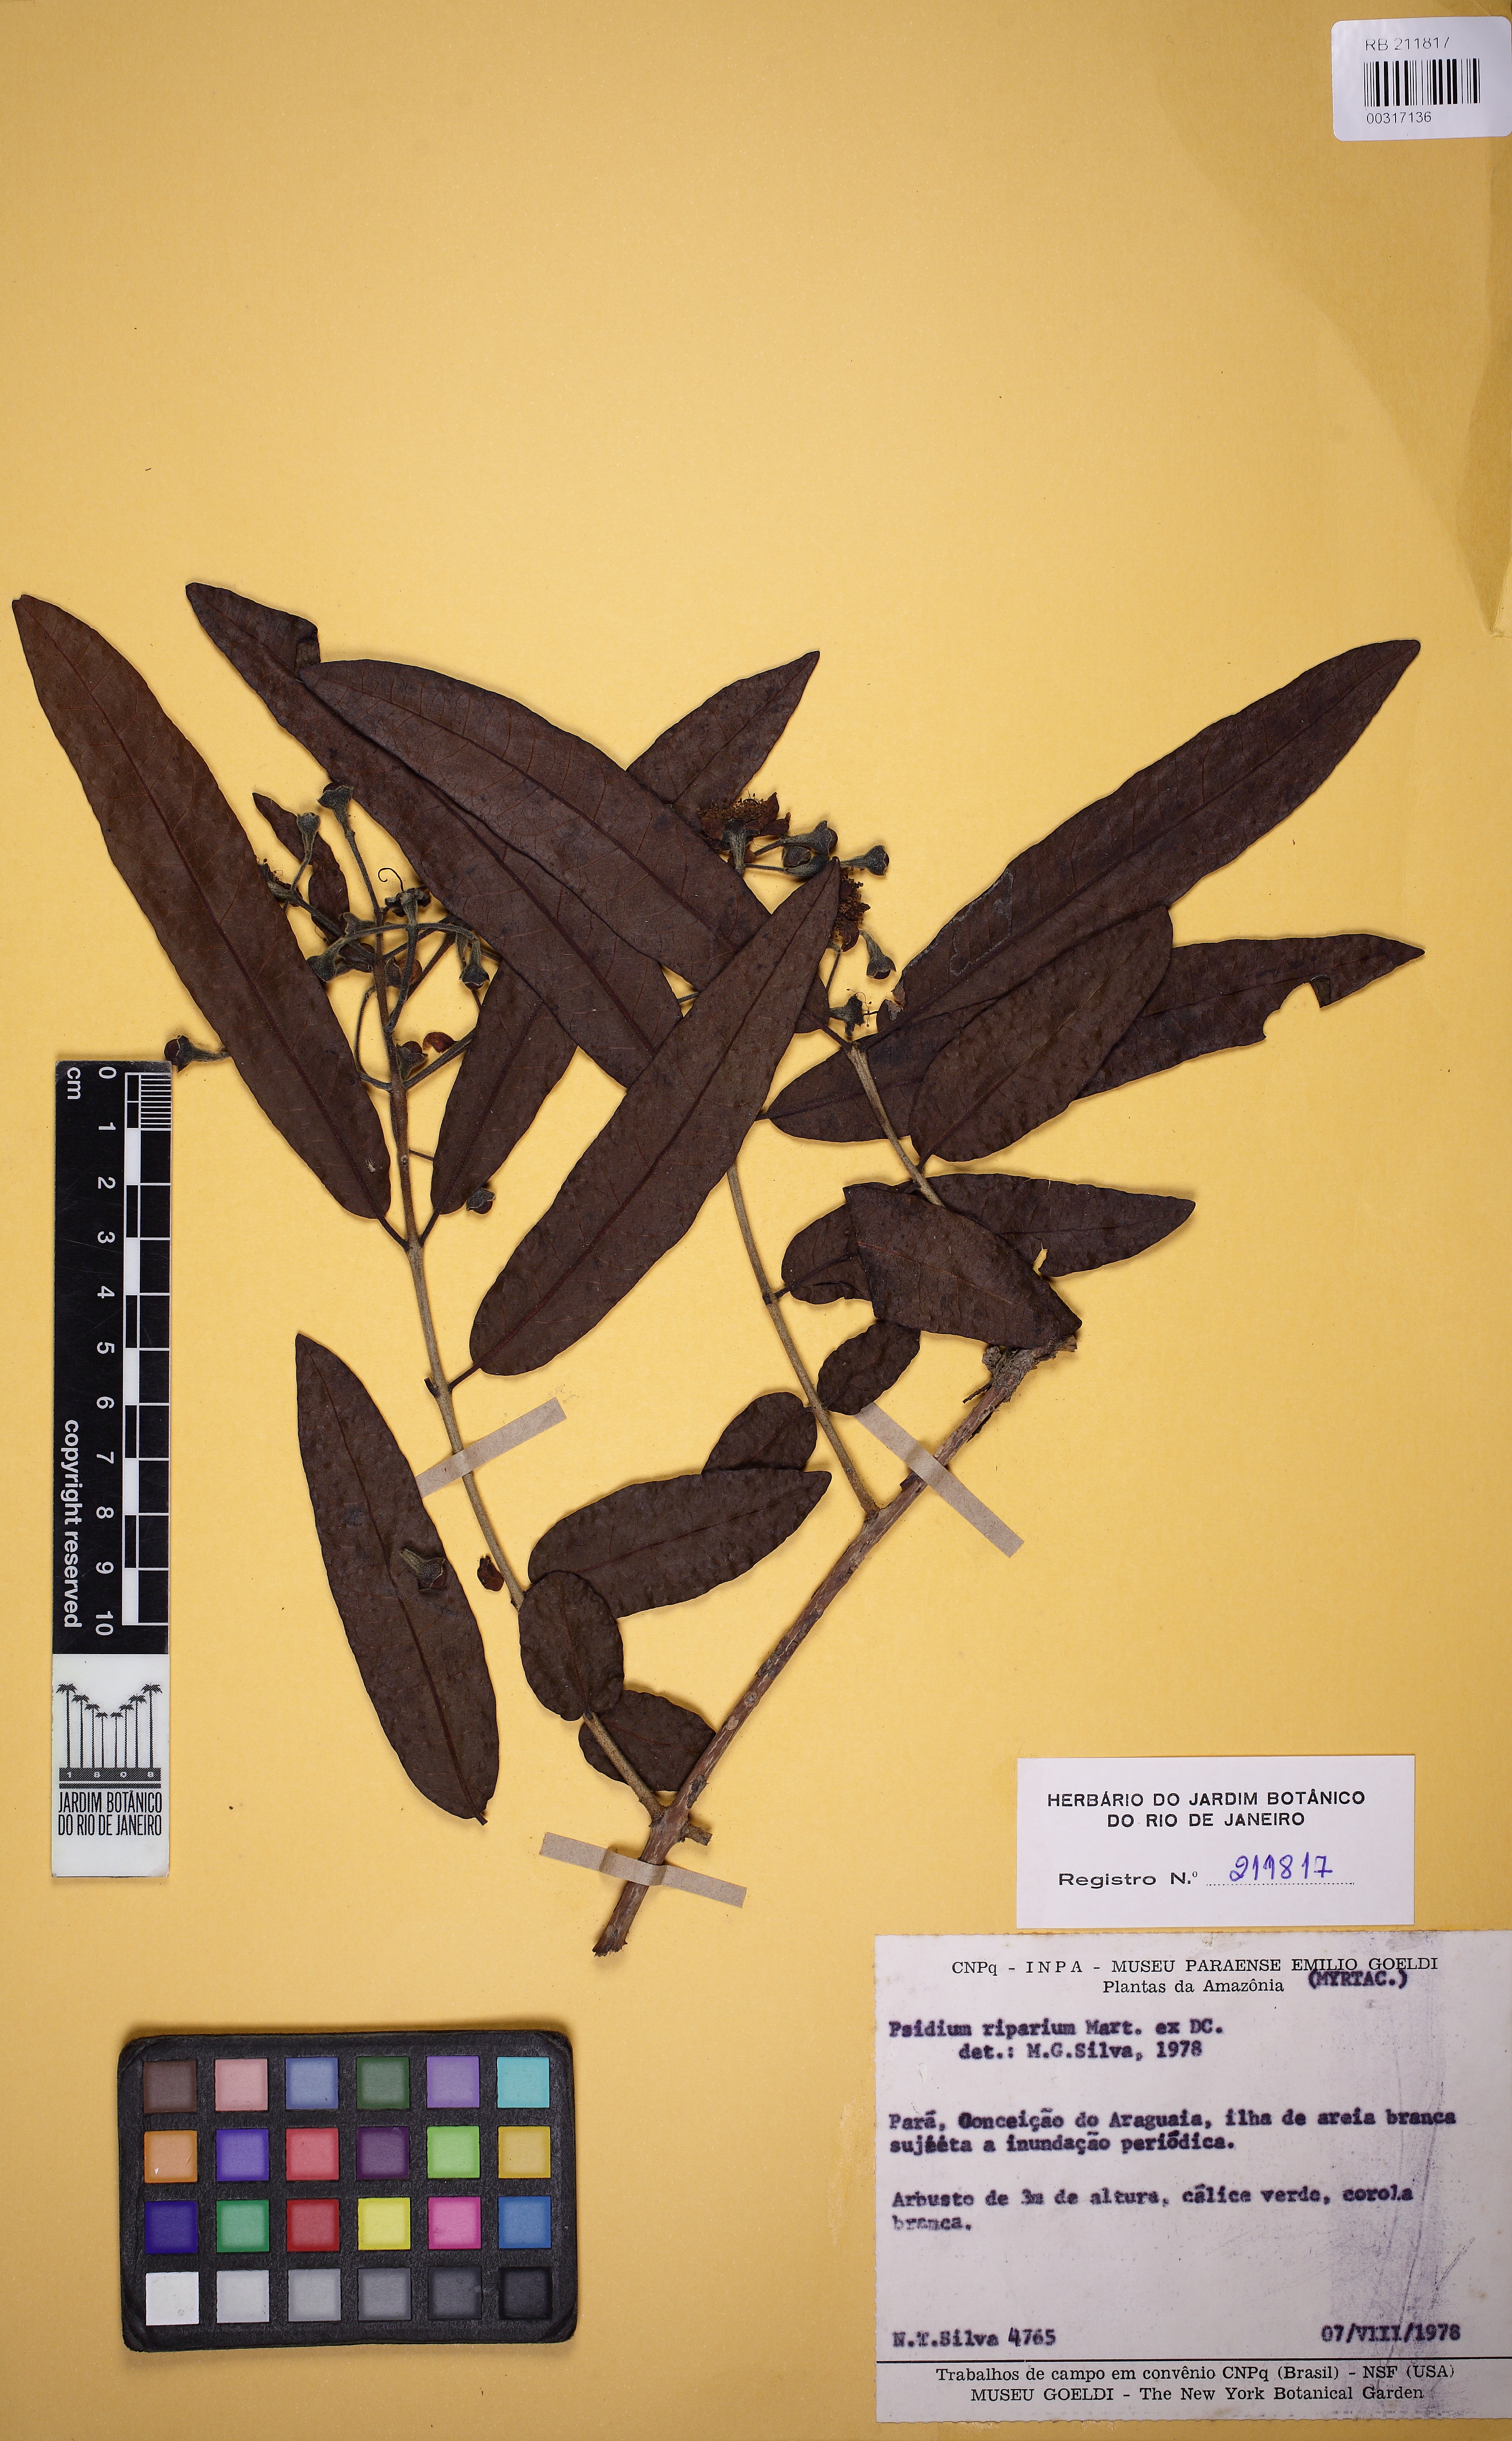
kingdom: Plantae
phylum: Tracheophyta
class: Magnoliopsida
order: Myrtales
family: Myrtaceae
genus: Psidium
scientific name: Psidium riparium
